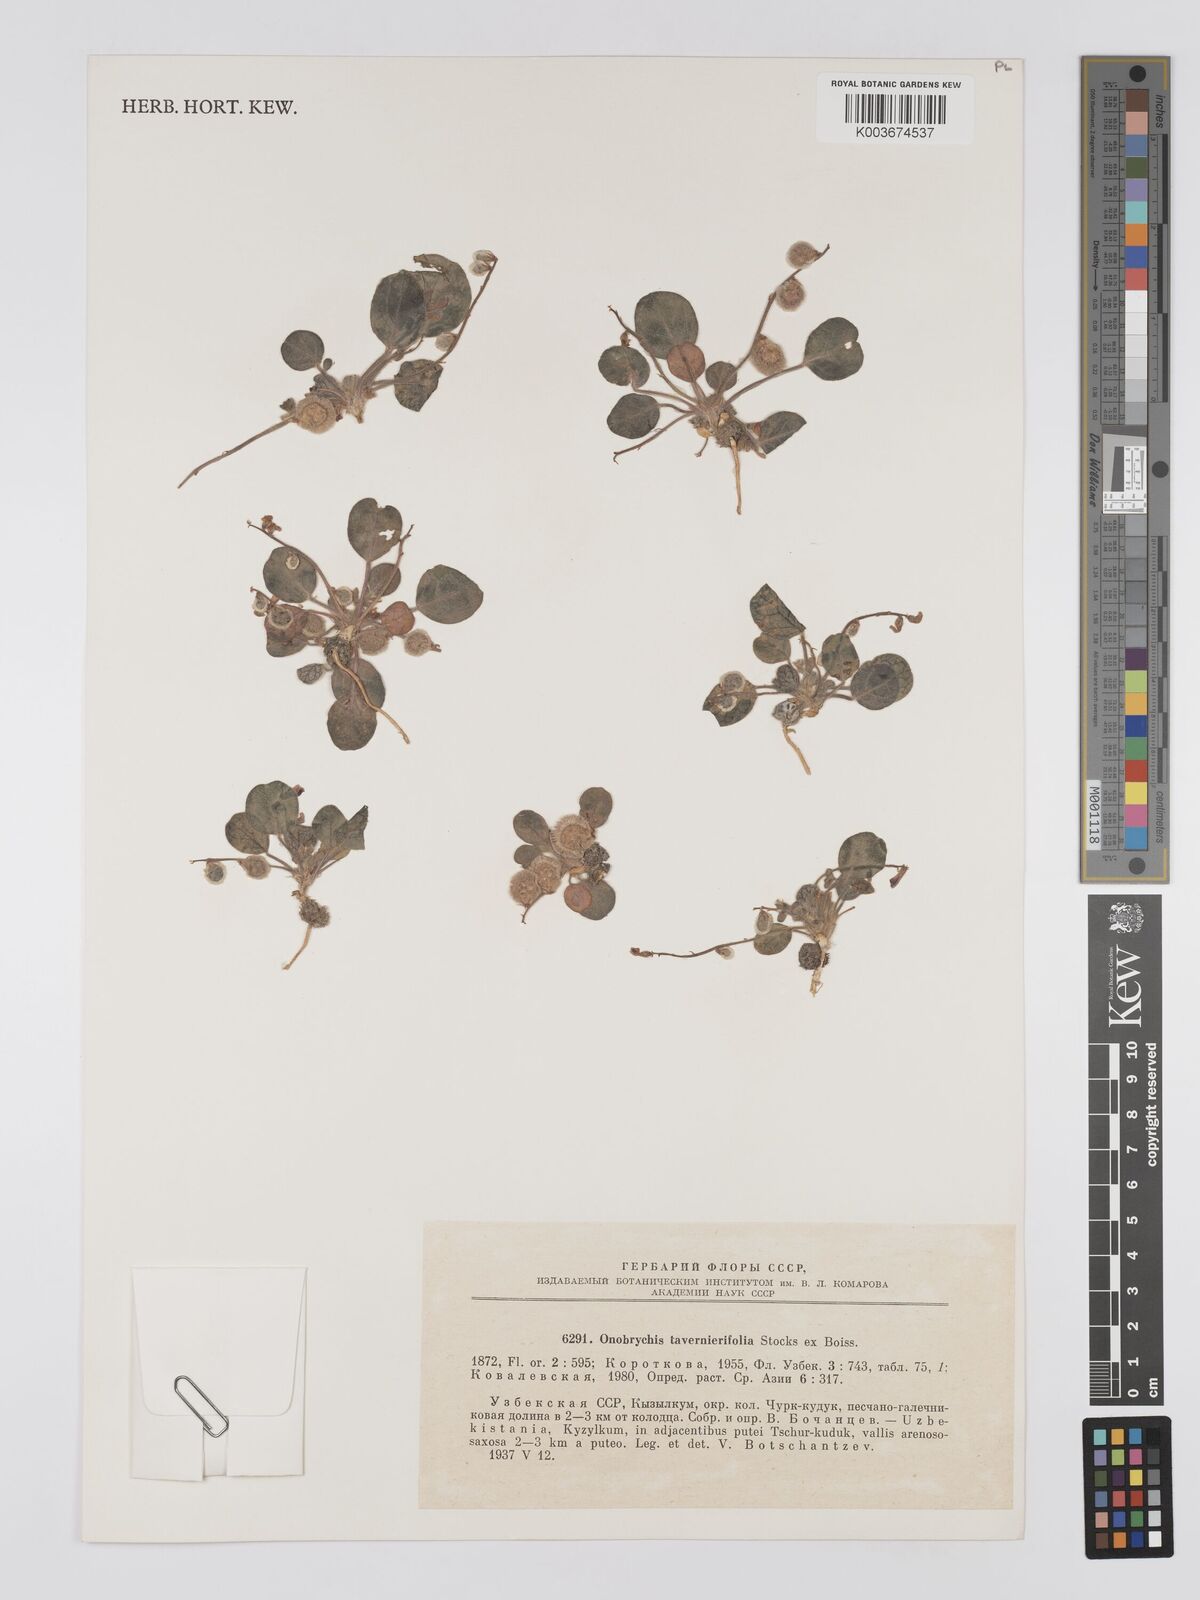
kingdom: Plantae
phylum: Tracheophyta
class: Magnoliopsida
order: Fabales
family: Fabaceae
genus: Onobrychis
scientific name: Onobrychis tavernierifolia
